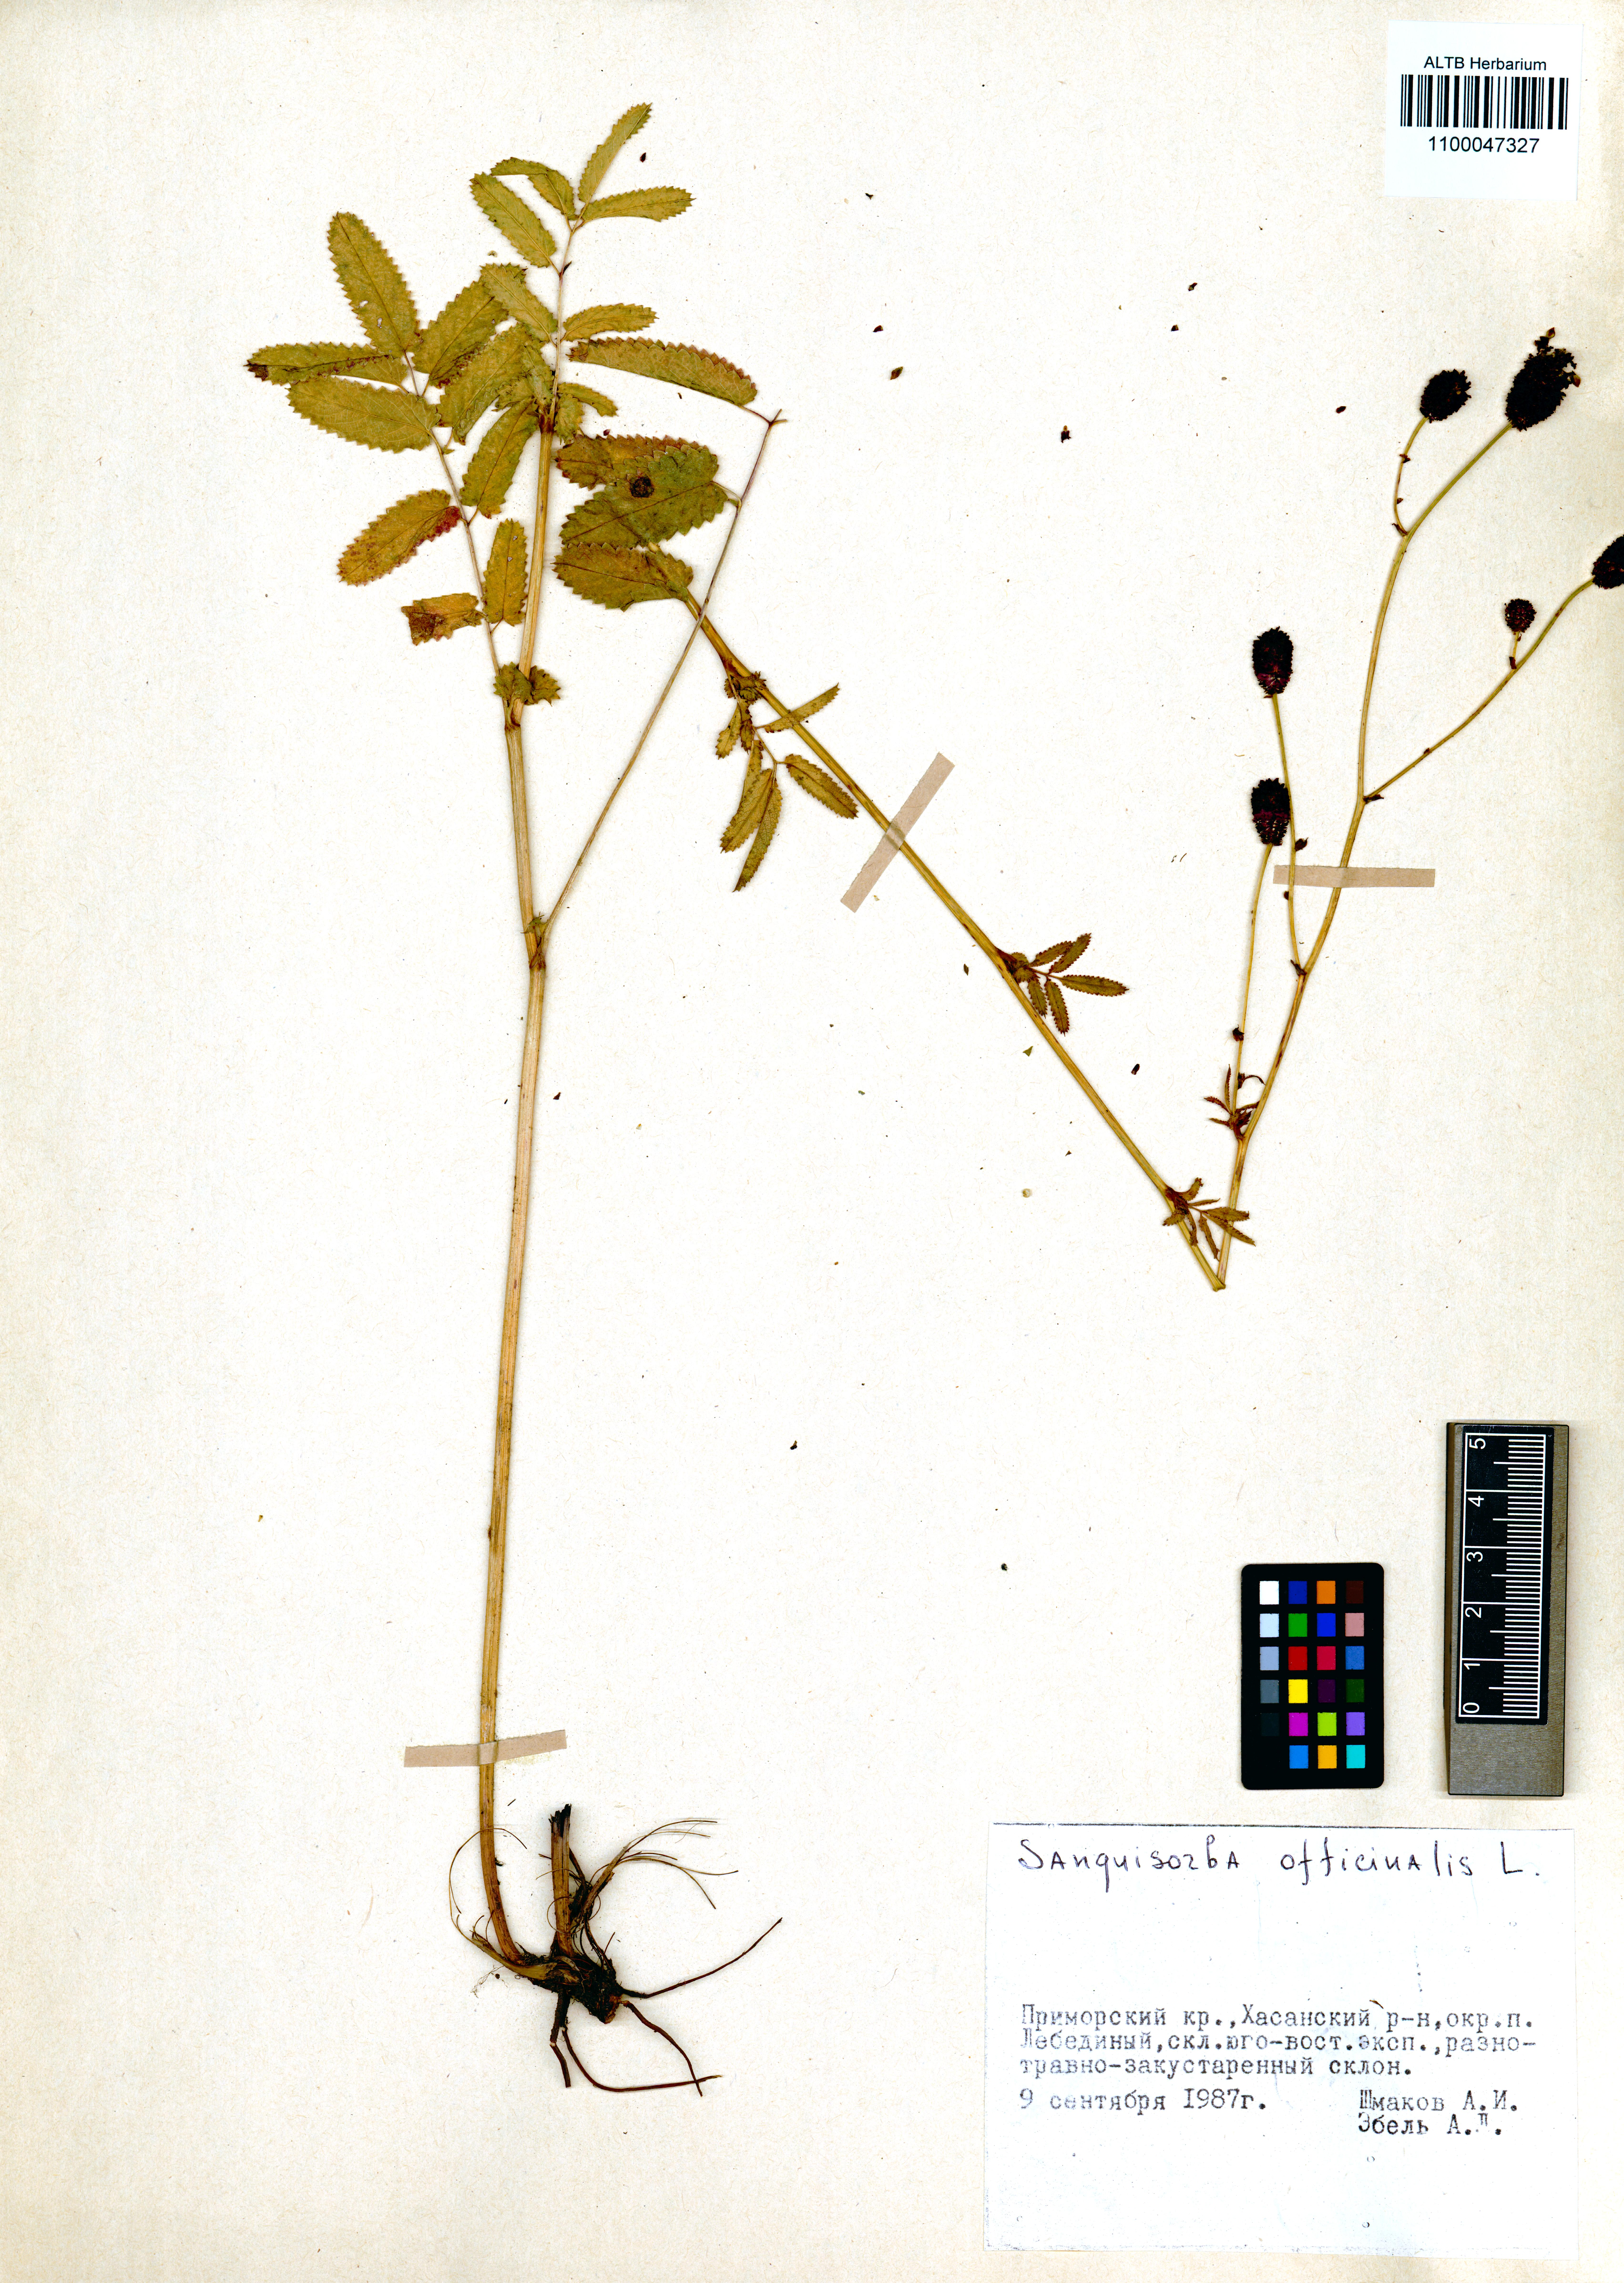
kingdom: Plantae
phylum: Tracheophyta
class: Magnoliopsida
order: Rosales
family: Rosaceae
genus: Sanguisorba
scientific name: Sanguisorba officinalis
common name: Great burnet
